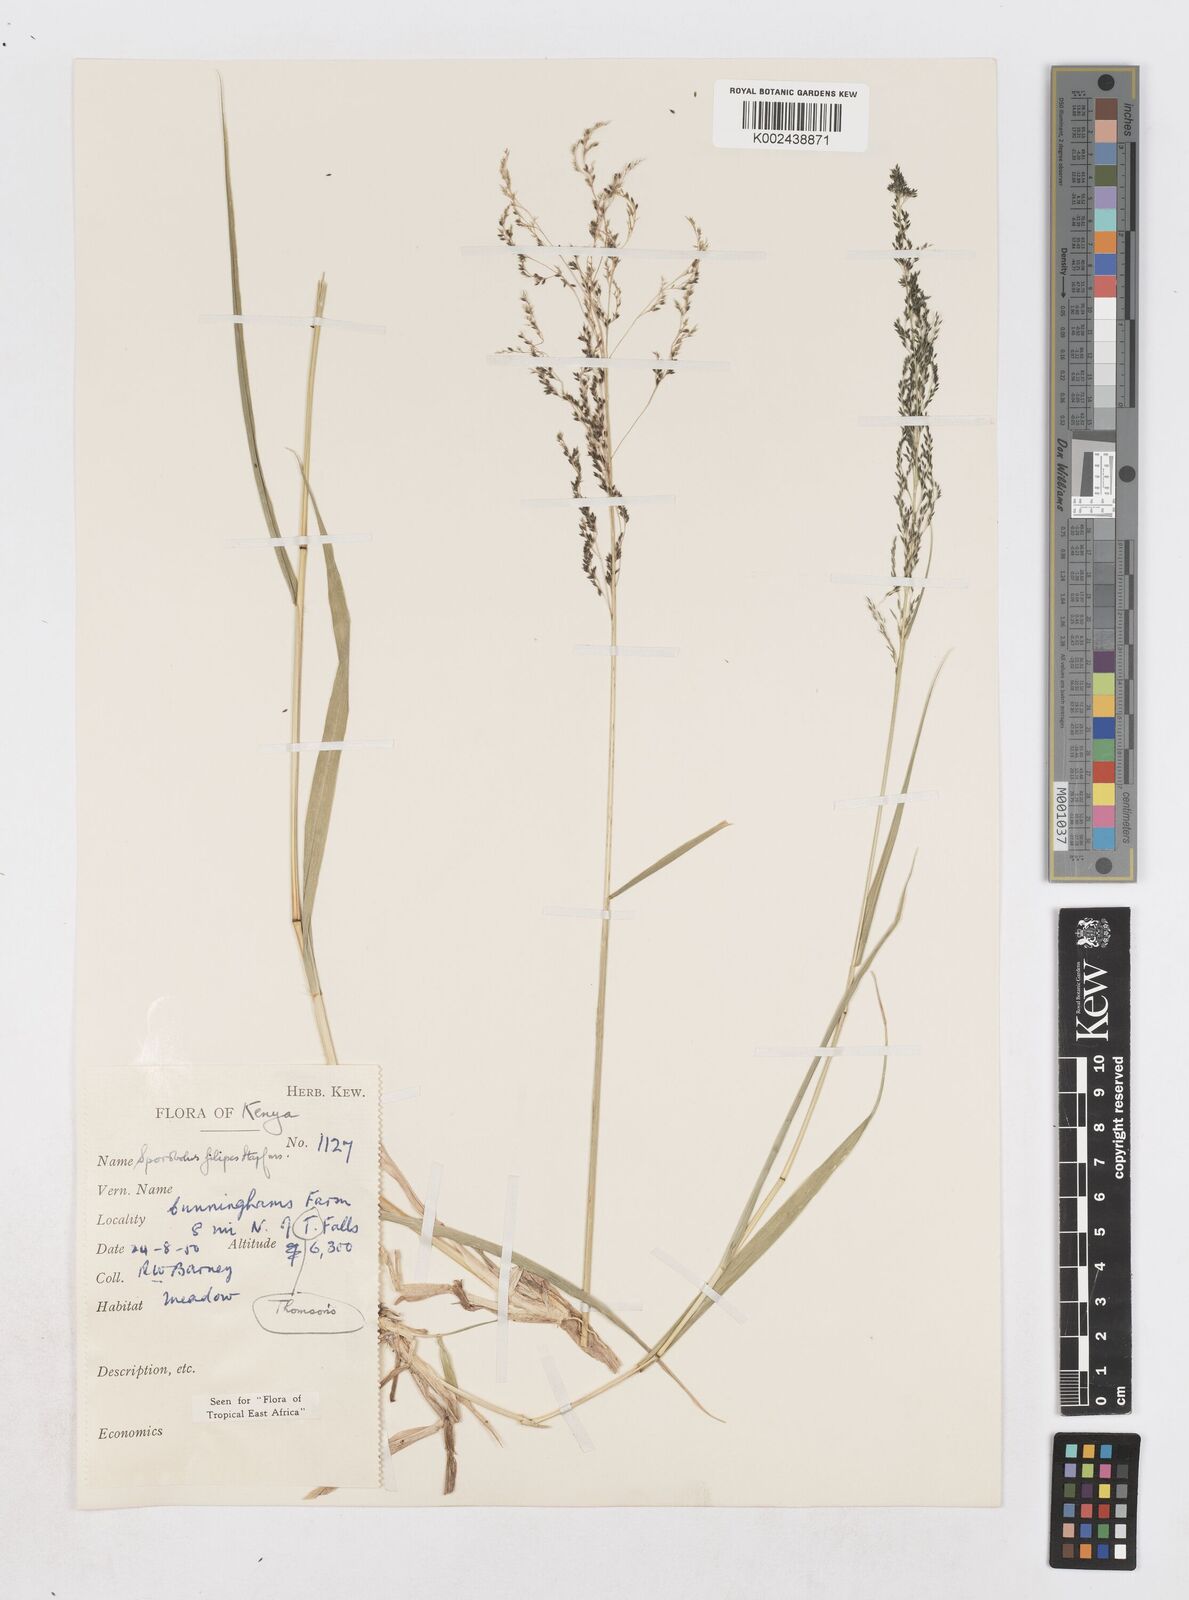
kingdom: Plantae
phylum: Tracheophyta
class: Liliopsida
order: Poales
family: Poaceae
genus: Sporobolus
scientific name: Sporobolus agrostoides
